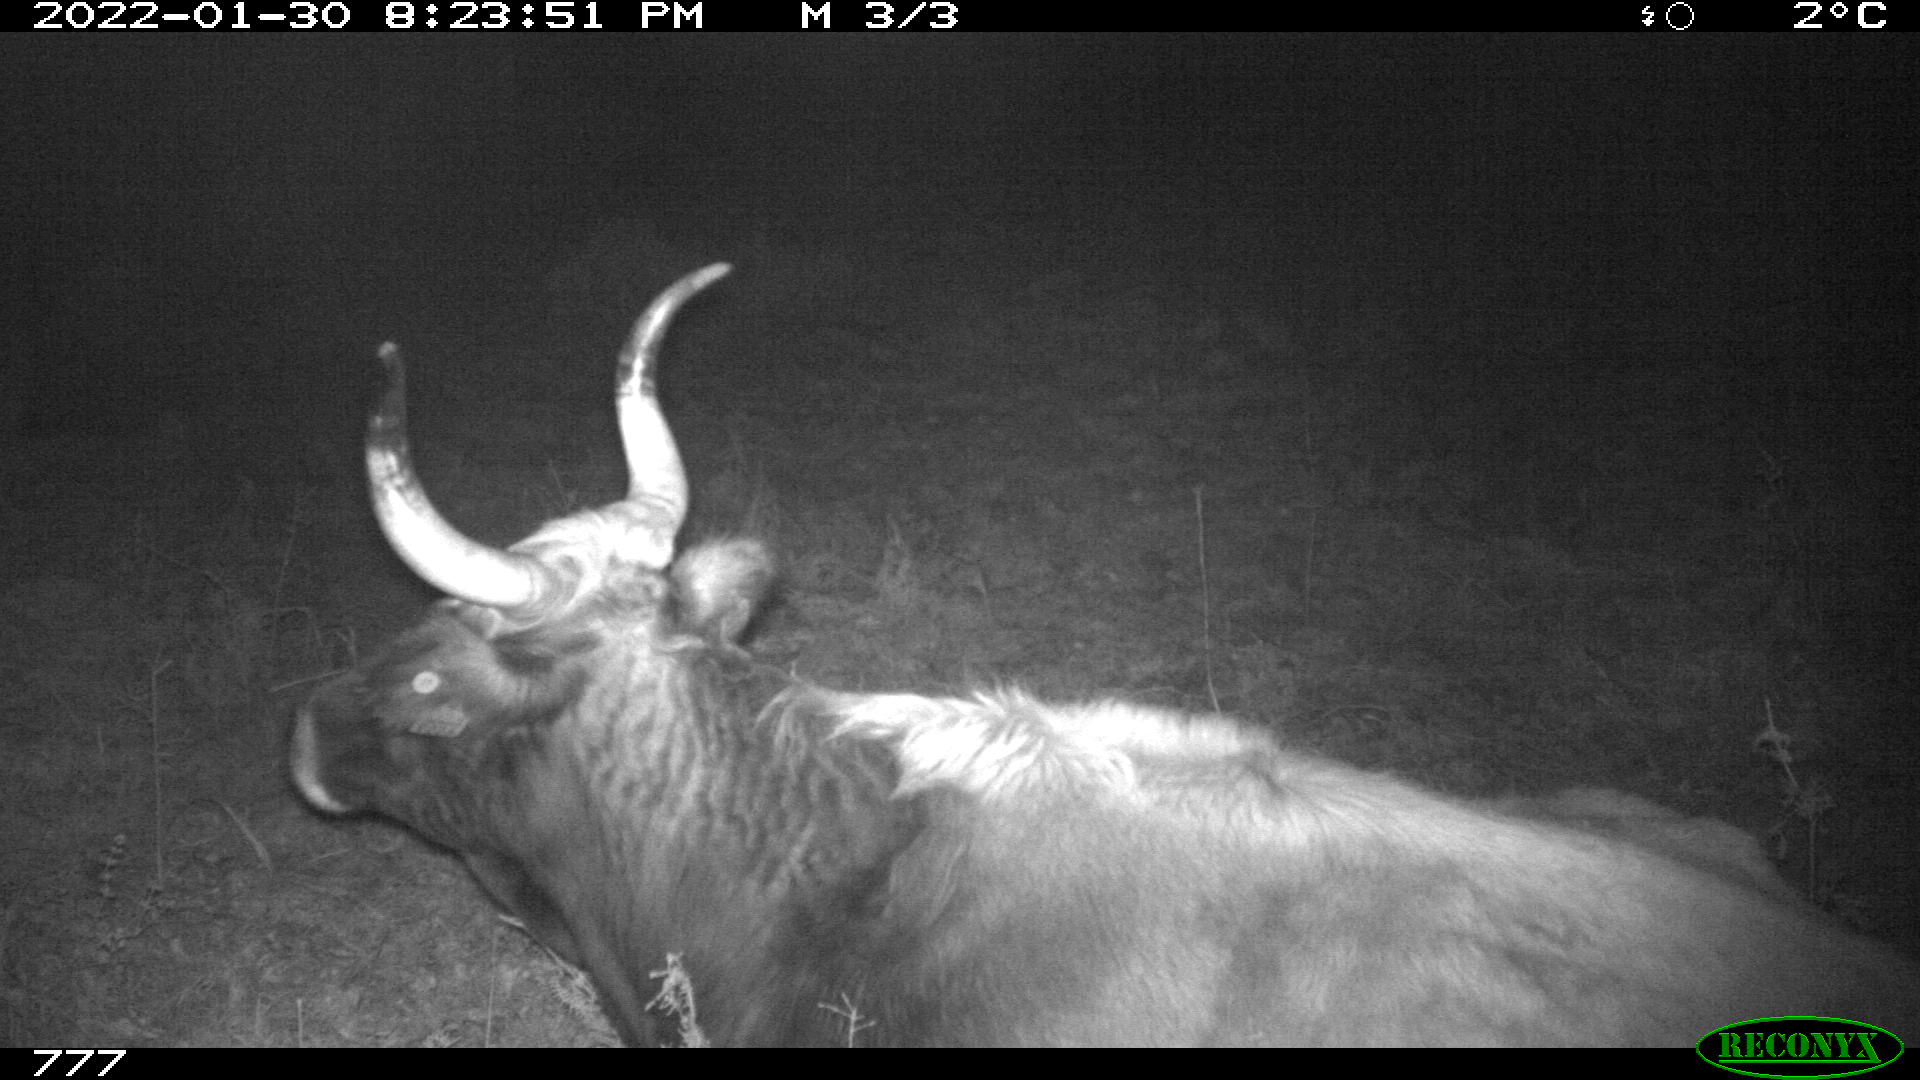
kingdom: Animalia
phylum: Chordata
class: Mammalia
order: Artiodactyla
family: Bovidae
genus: Bos
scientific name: Bos taurus
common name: Domesticated cattle
